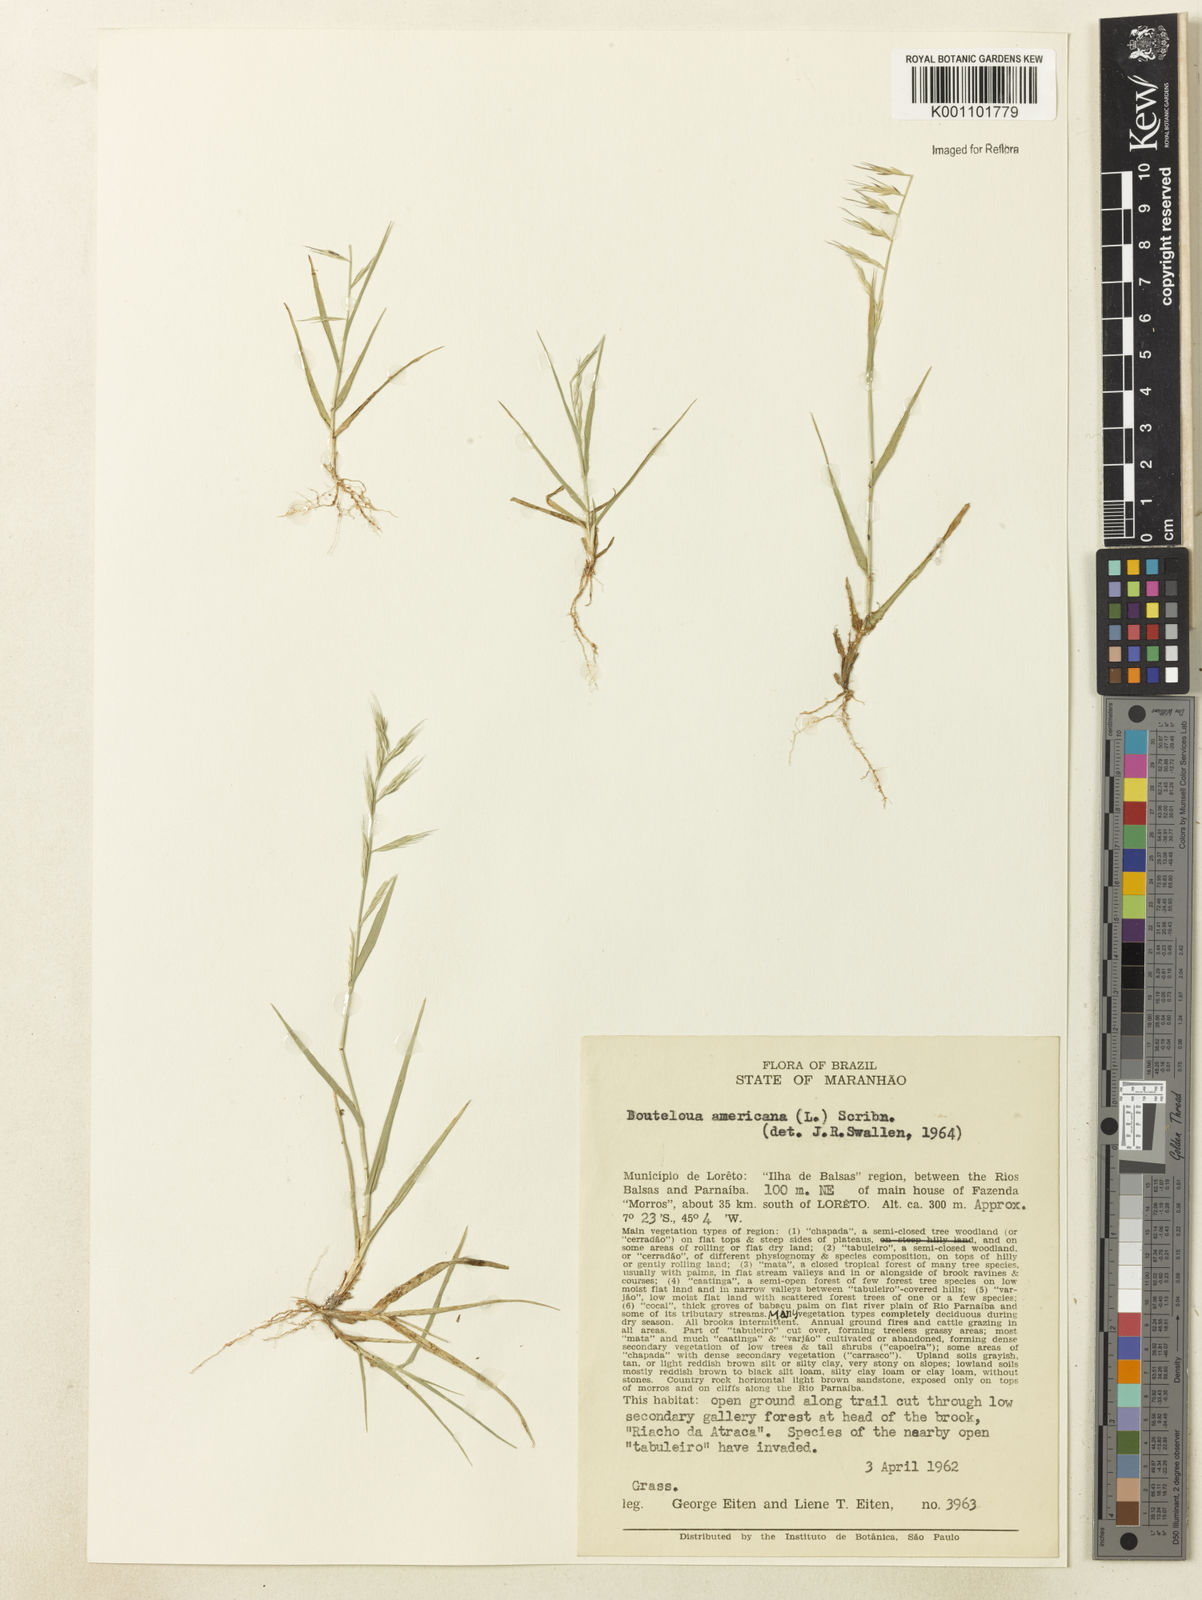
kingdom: Plantae
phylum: Tracheophyta
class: Liliopsida
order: Poales
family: Poaceae
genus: Bouteloua
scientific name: Bouteloua americana
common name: Mule grass
